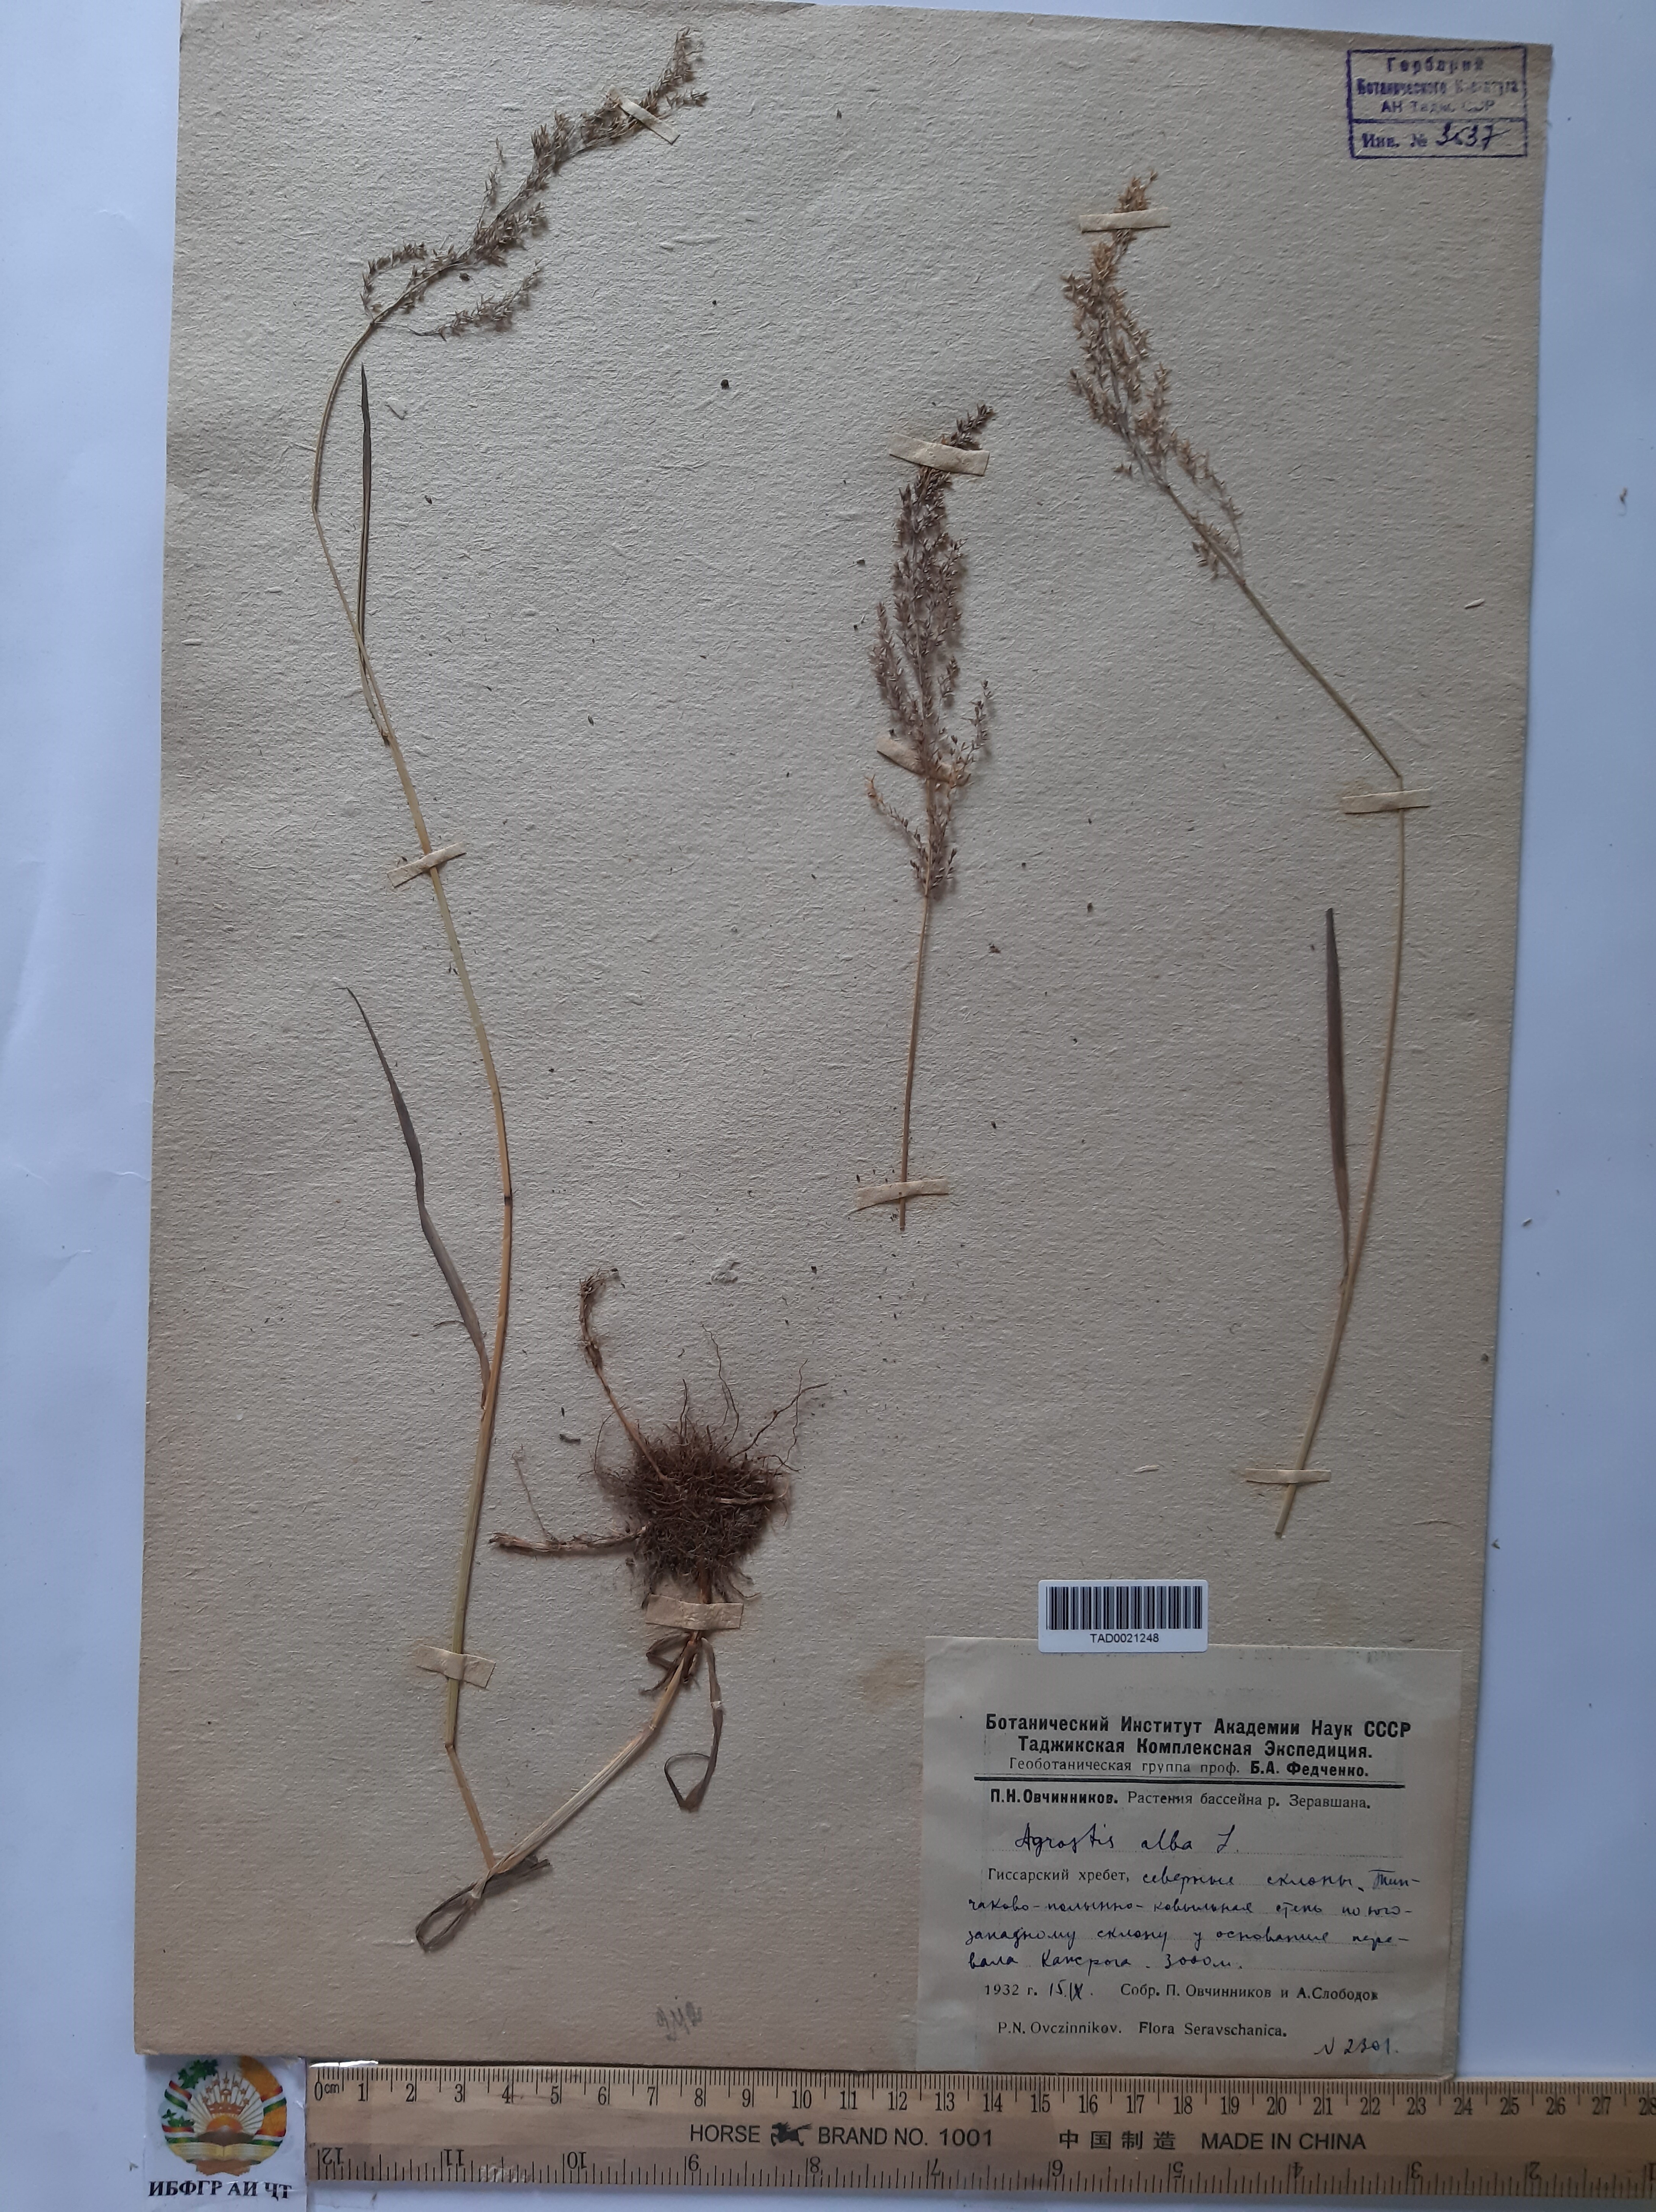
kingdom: Plantae
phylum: Tracheophyta
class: Liliopsida
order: Poales
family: Poaceae
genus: Poa
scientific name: Poa nemoralis
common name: Wood bluegrass
